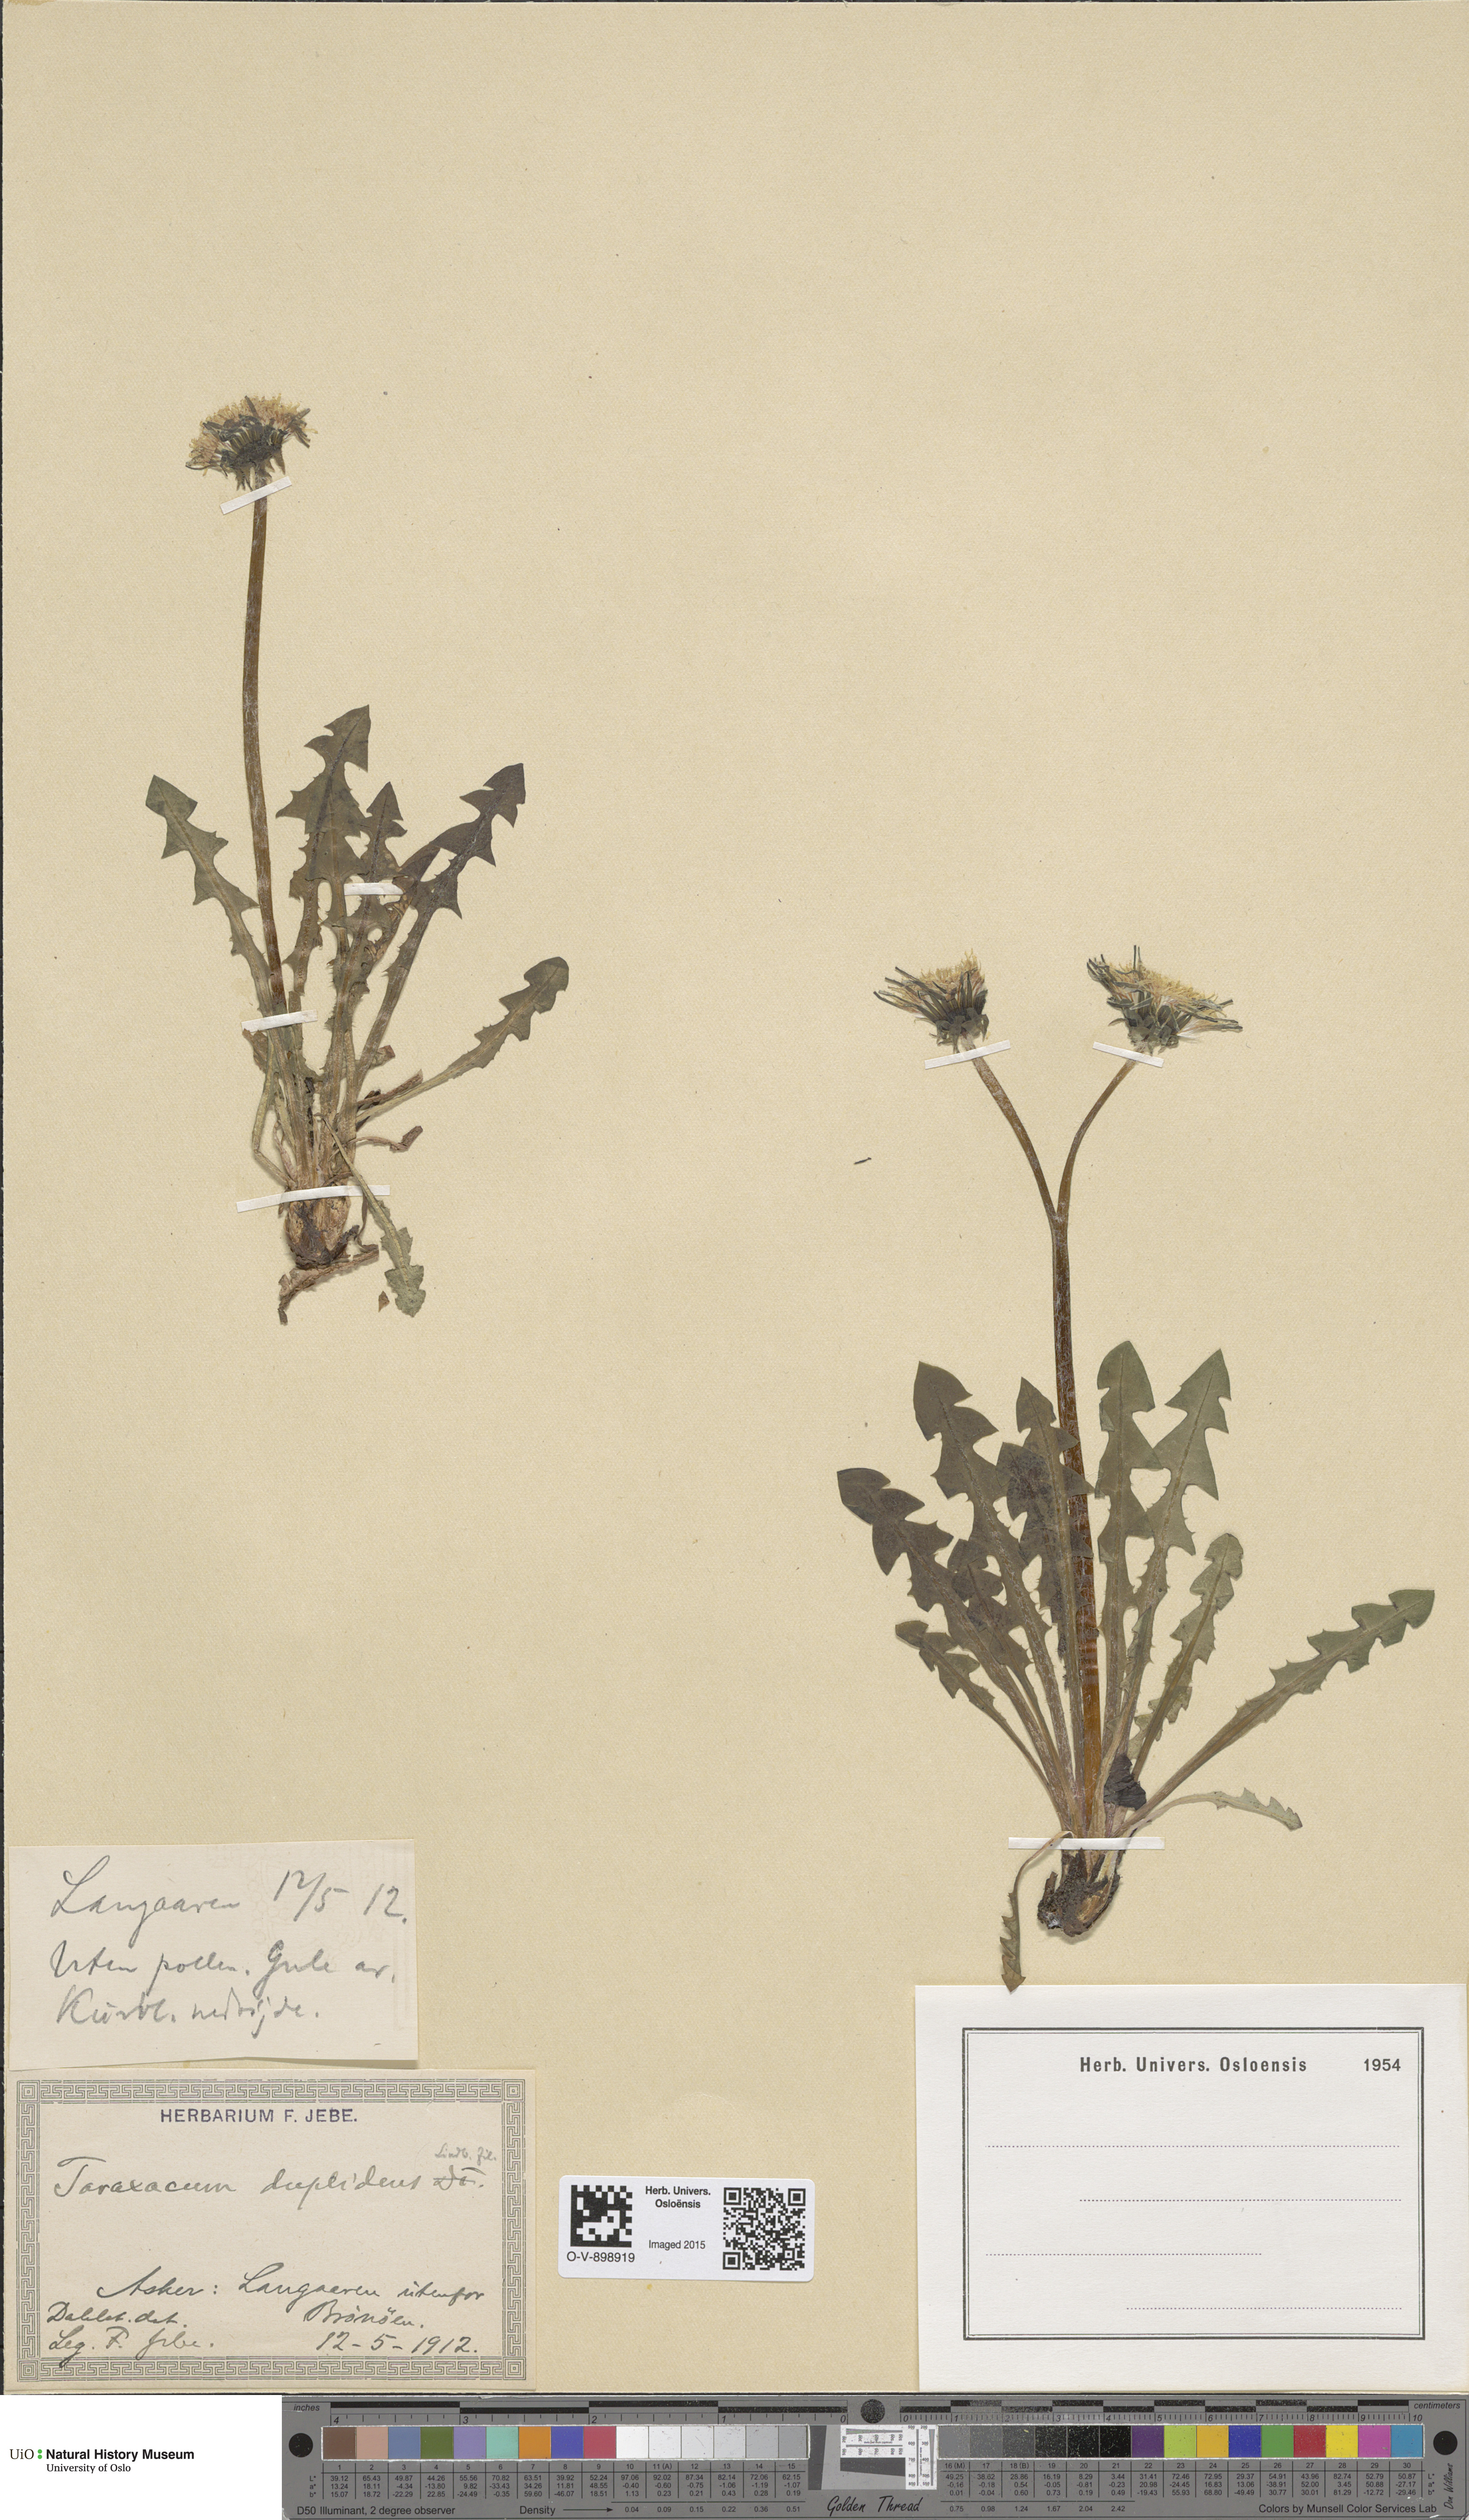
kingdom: Plantae
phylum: Tracheophyta
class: Magnoliopsida
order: Asterales
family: Asteraceae
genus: Taraxacum
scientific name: Taraxacum ostenfeldii
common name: Ostenfeld's dandelion
